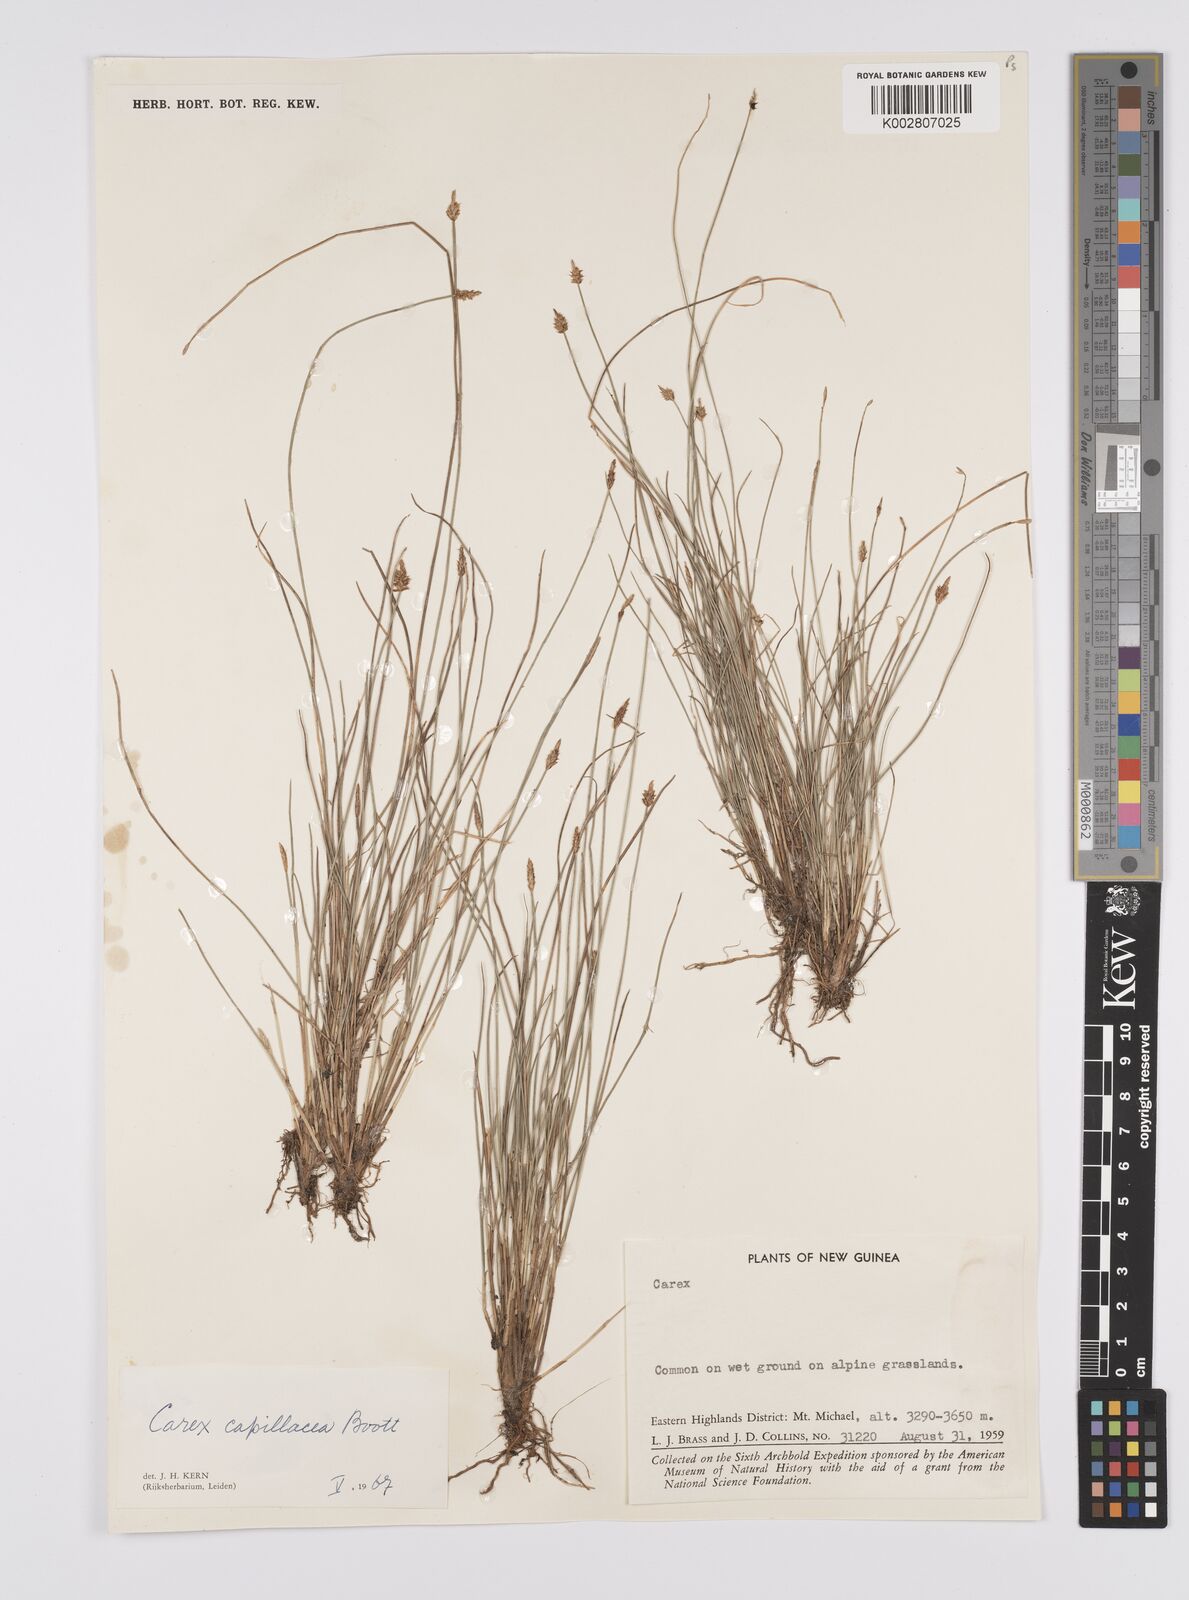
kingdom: Plantae
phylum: Tracheophyta
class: Liliopsida
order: Poales
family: Cyperaceae
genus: Carex
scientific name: Carex capillacea
